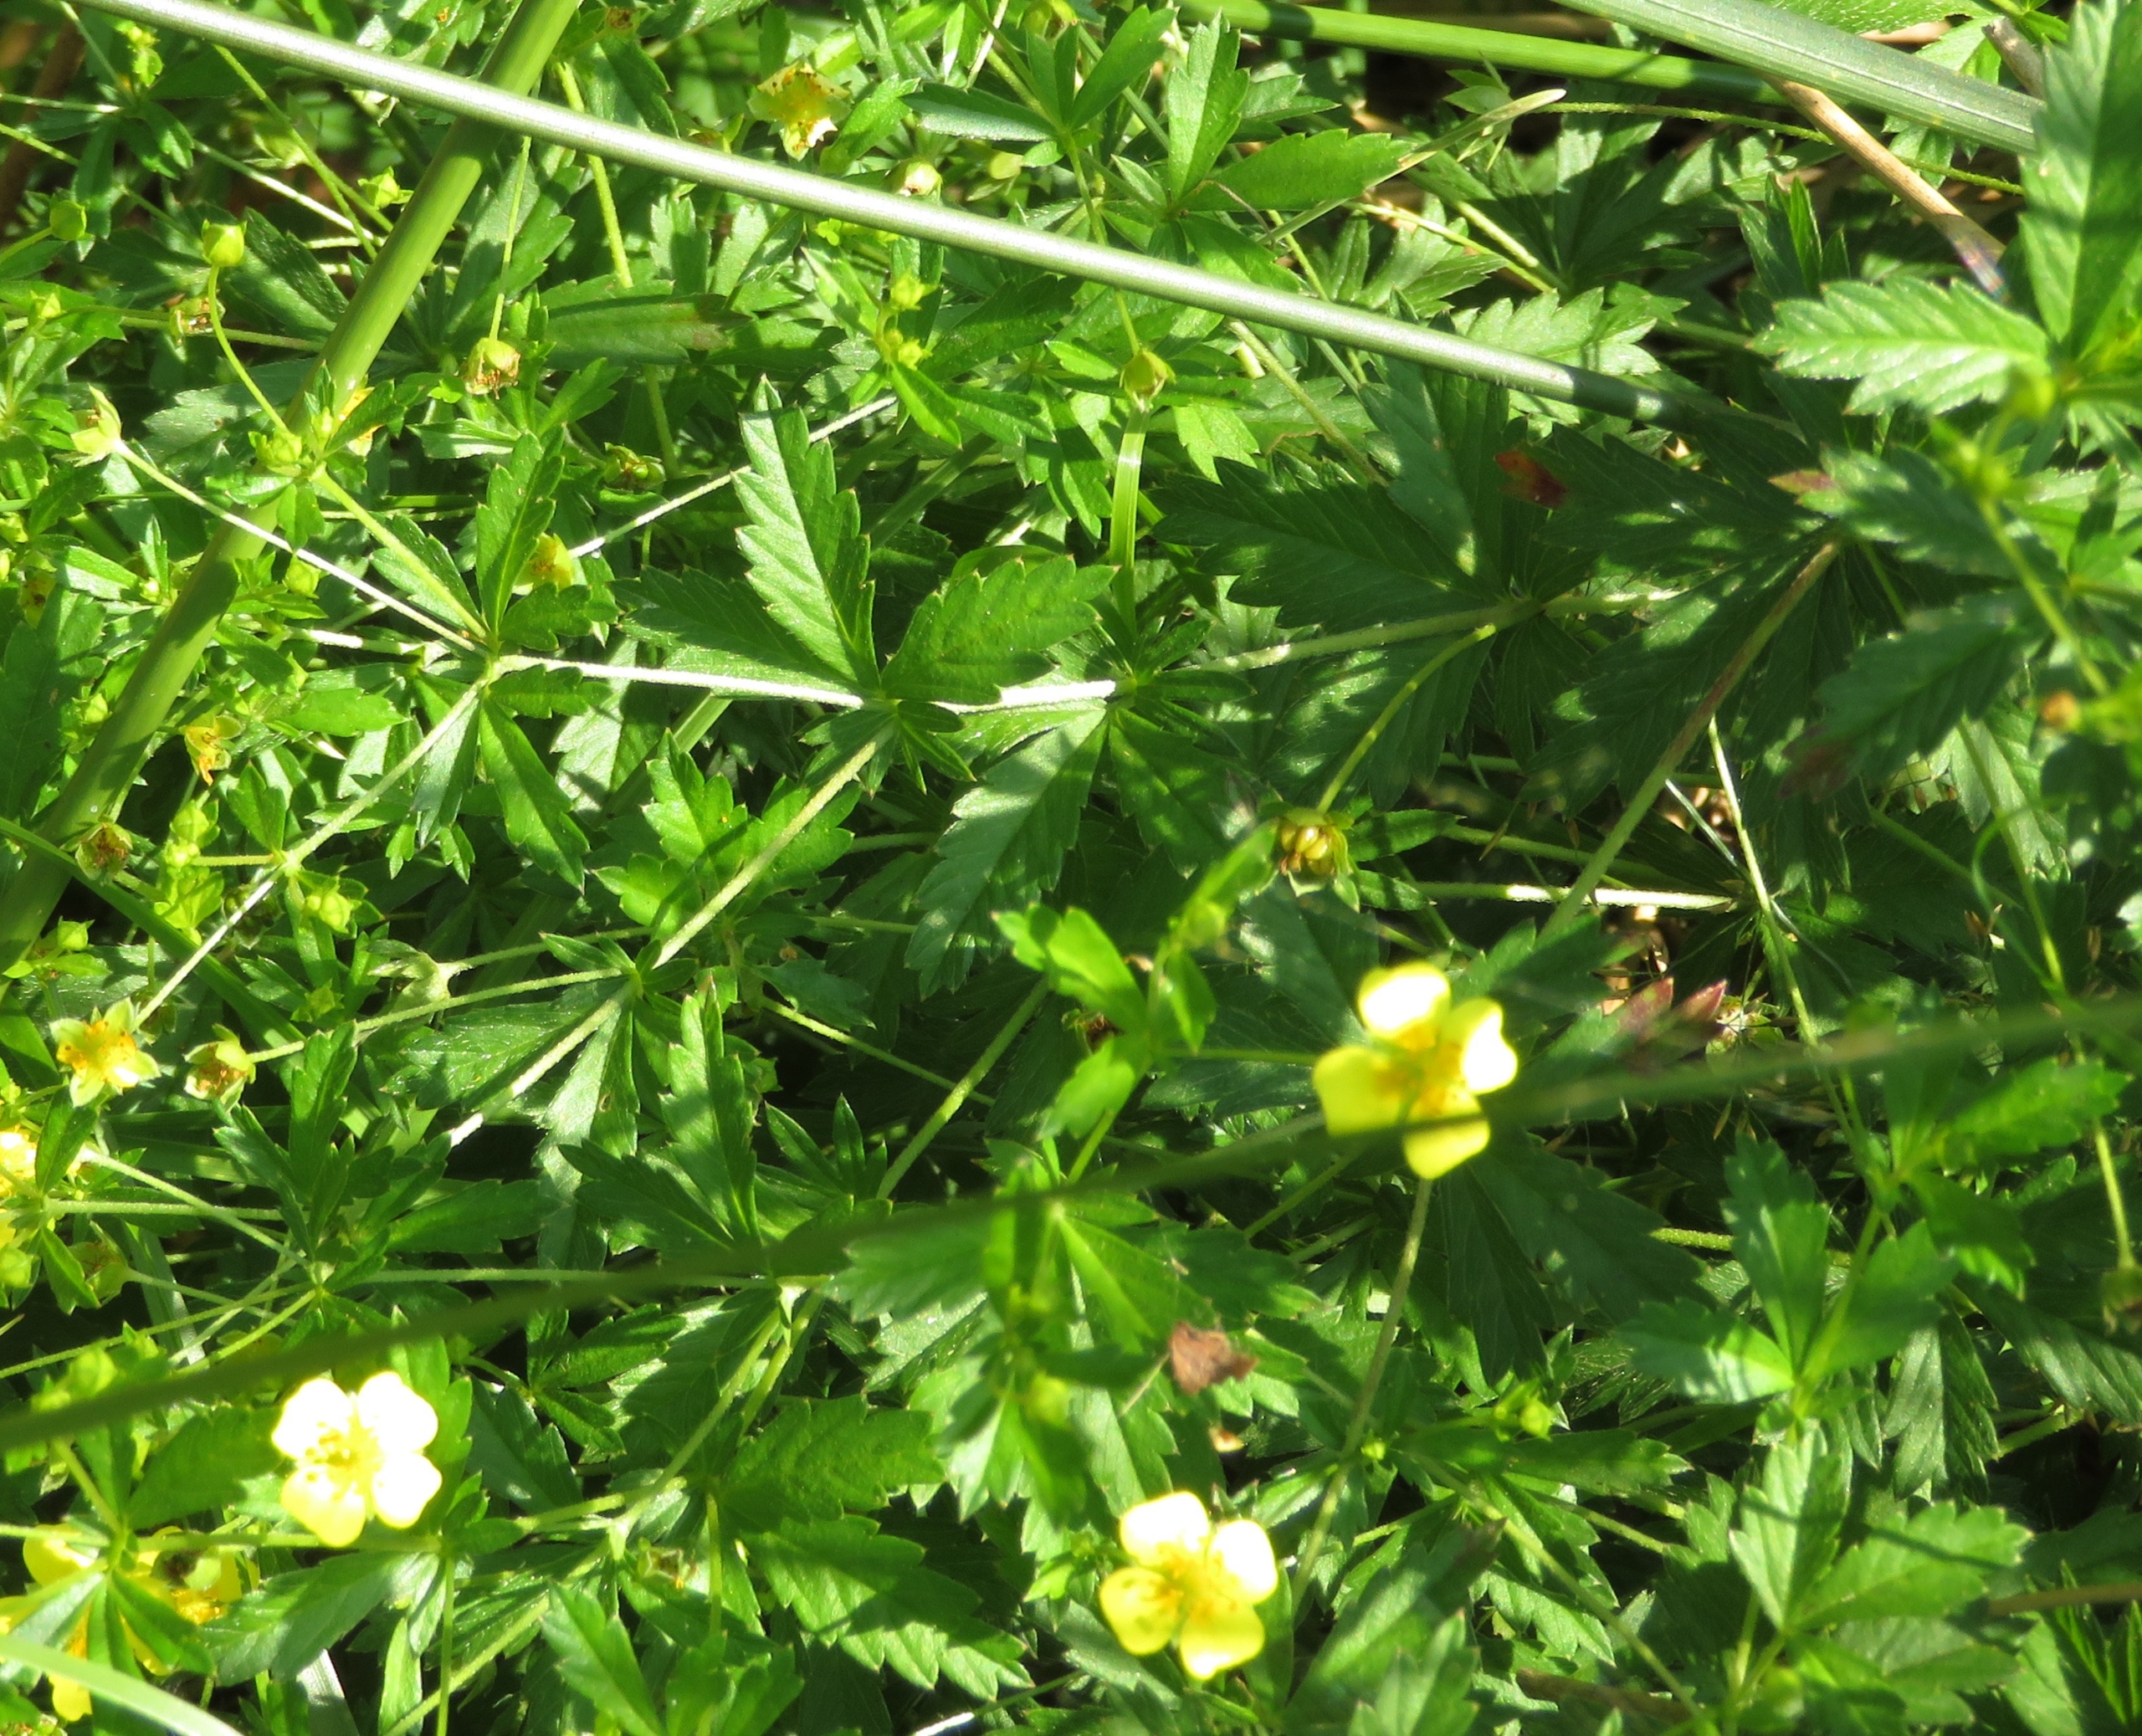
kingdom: Plantae
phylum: Tracheophyta
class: Magnoliopsida
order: Rosales
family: Rosaceae
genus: Potentilla
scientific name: Potentilla erecta
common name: Tormentil
